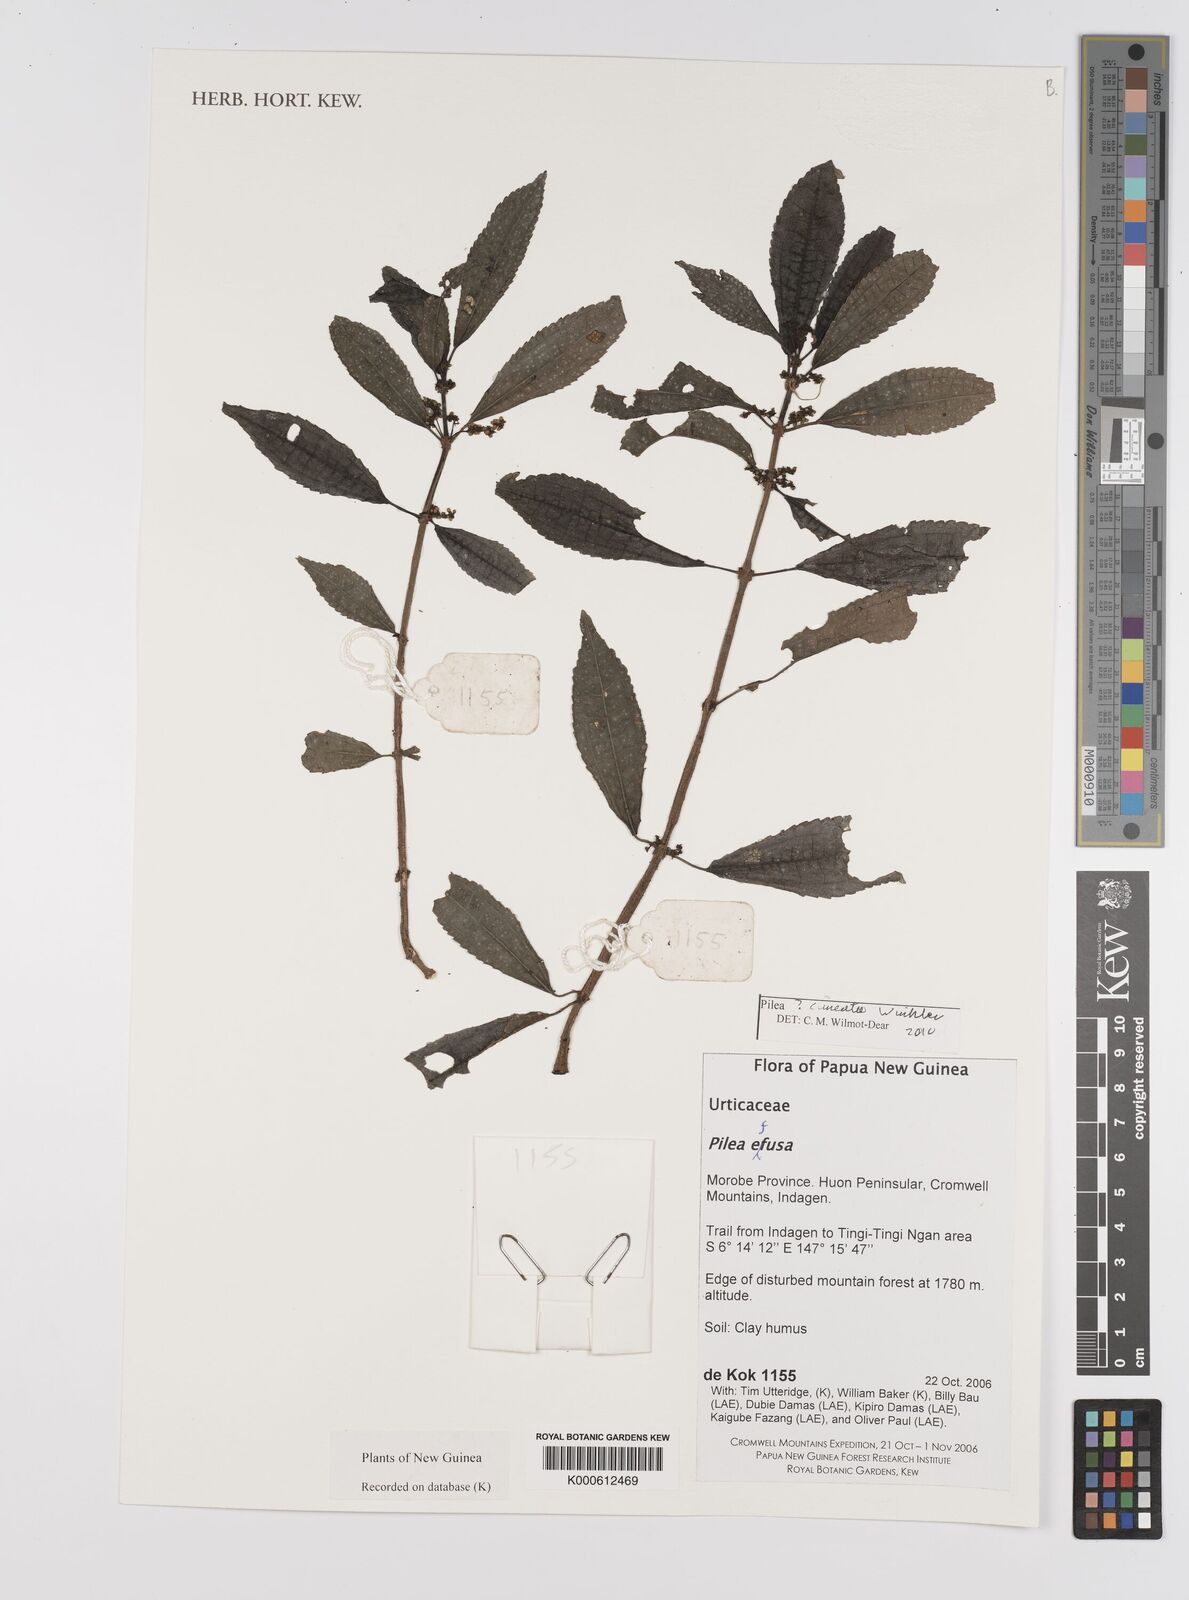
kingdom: Plantae
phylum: Tracheophyta
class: Magnoliopsida
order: Rosales
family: Urticaceae
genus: Pilea
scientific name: Pilea
